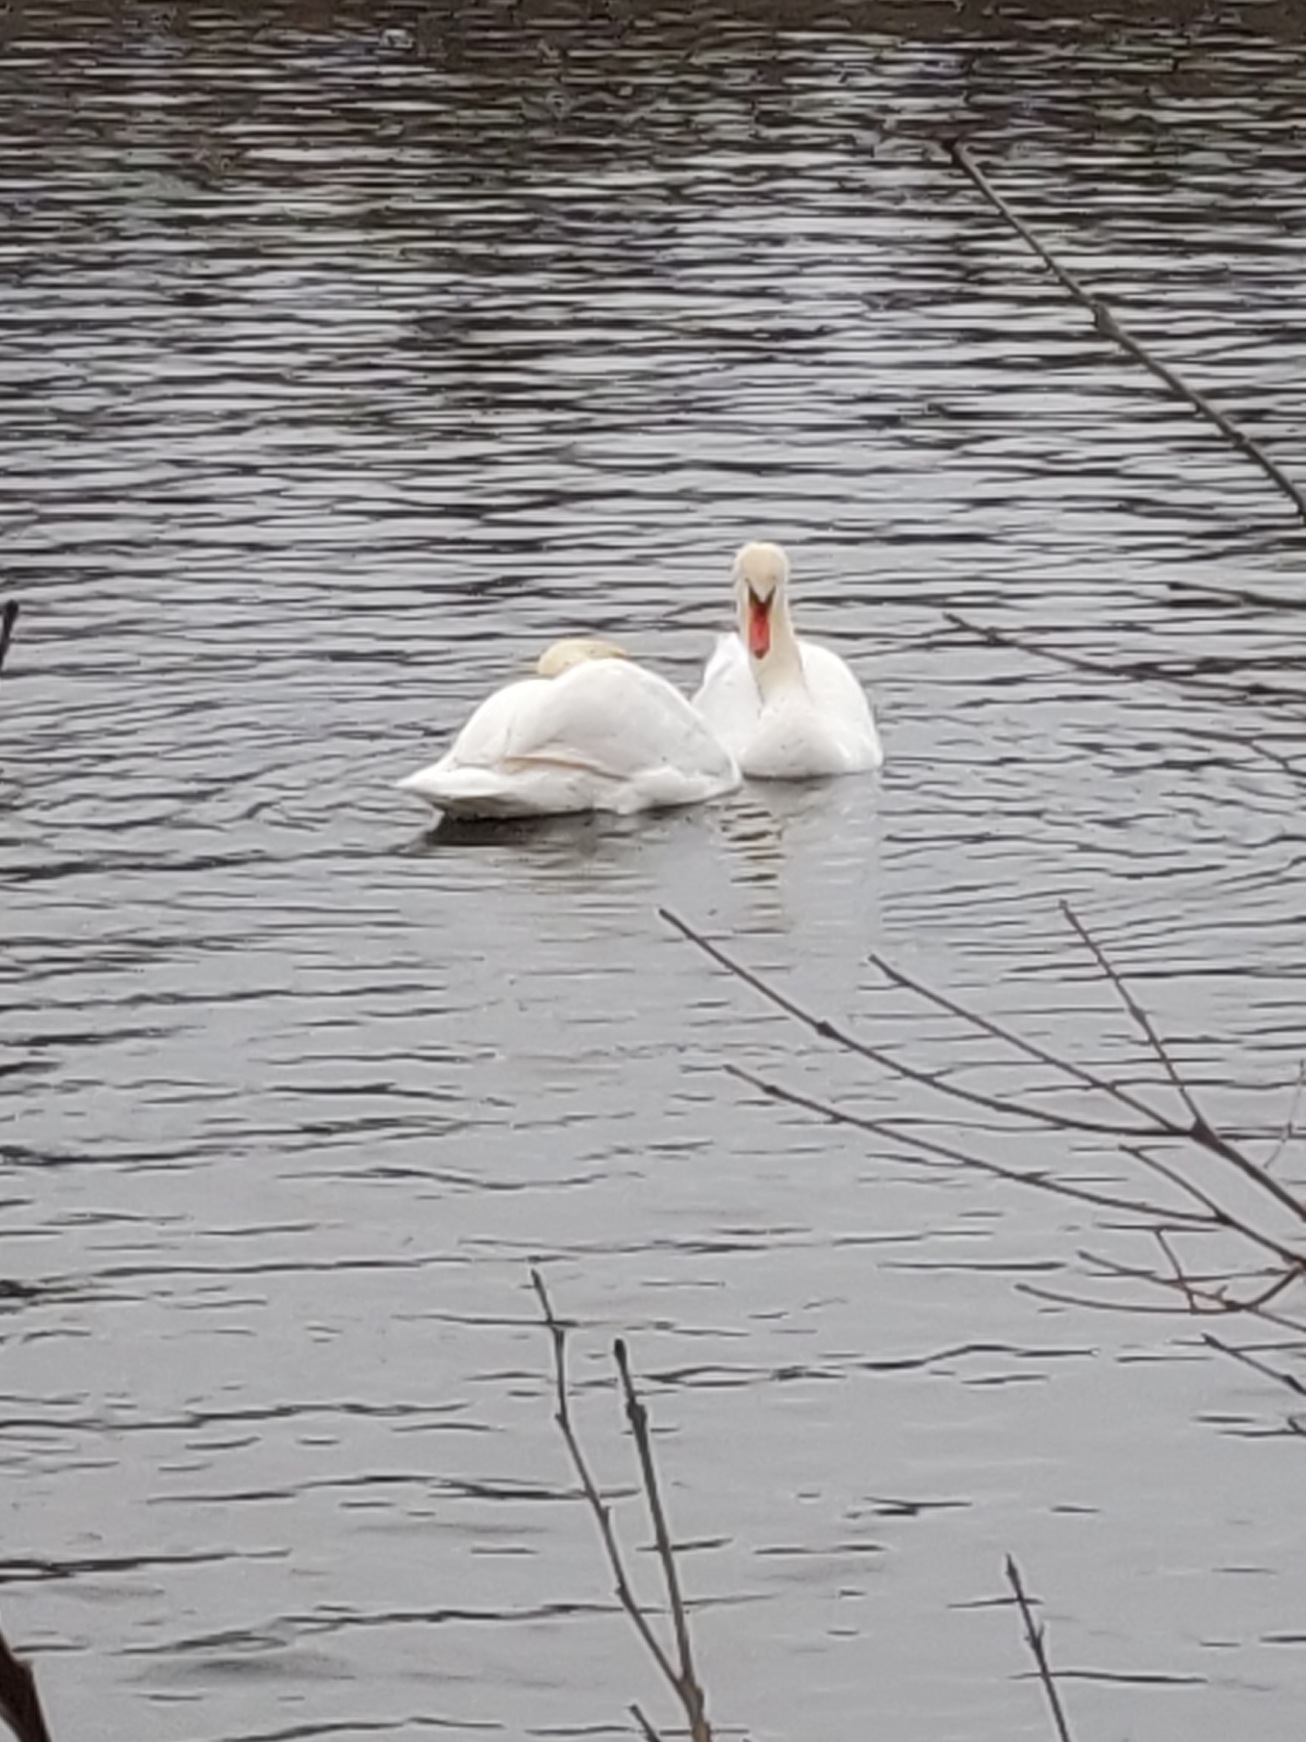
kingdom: Animalia
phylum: Chordata
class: Aves
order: Anseriformes
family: Anatidae
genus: Cygnus
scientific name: Cygnus olor
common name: Knopsvane
